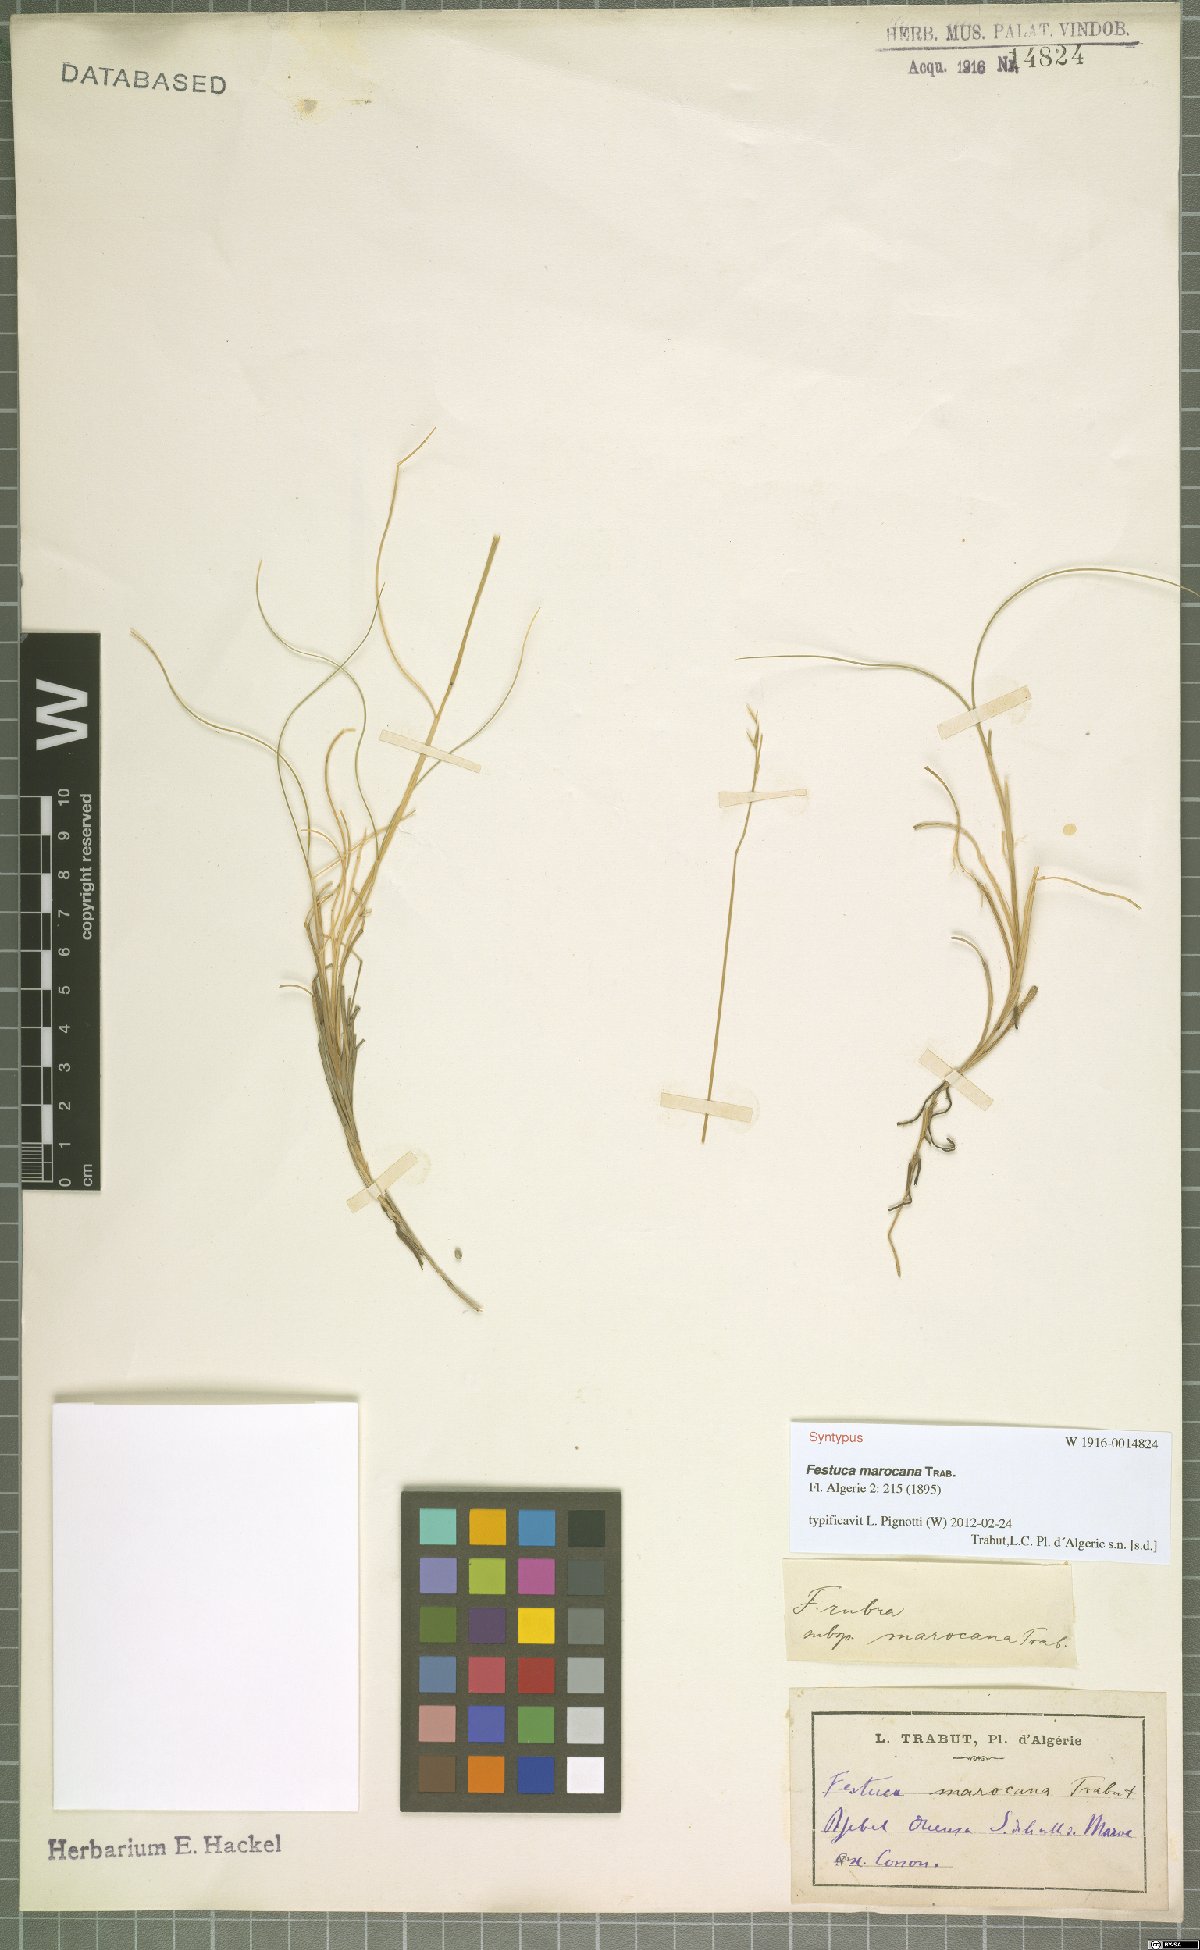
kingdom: Plantae
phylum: Tracheophyta
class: Liliopsida
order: Poales
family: Poaceae
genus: Festuca
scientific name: Festuca deserti
